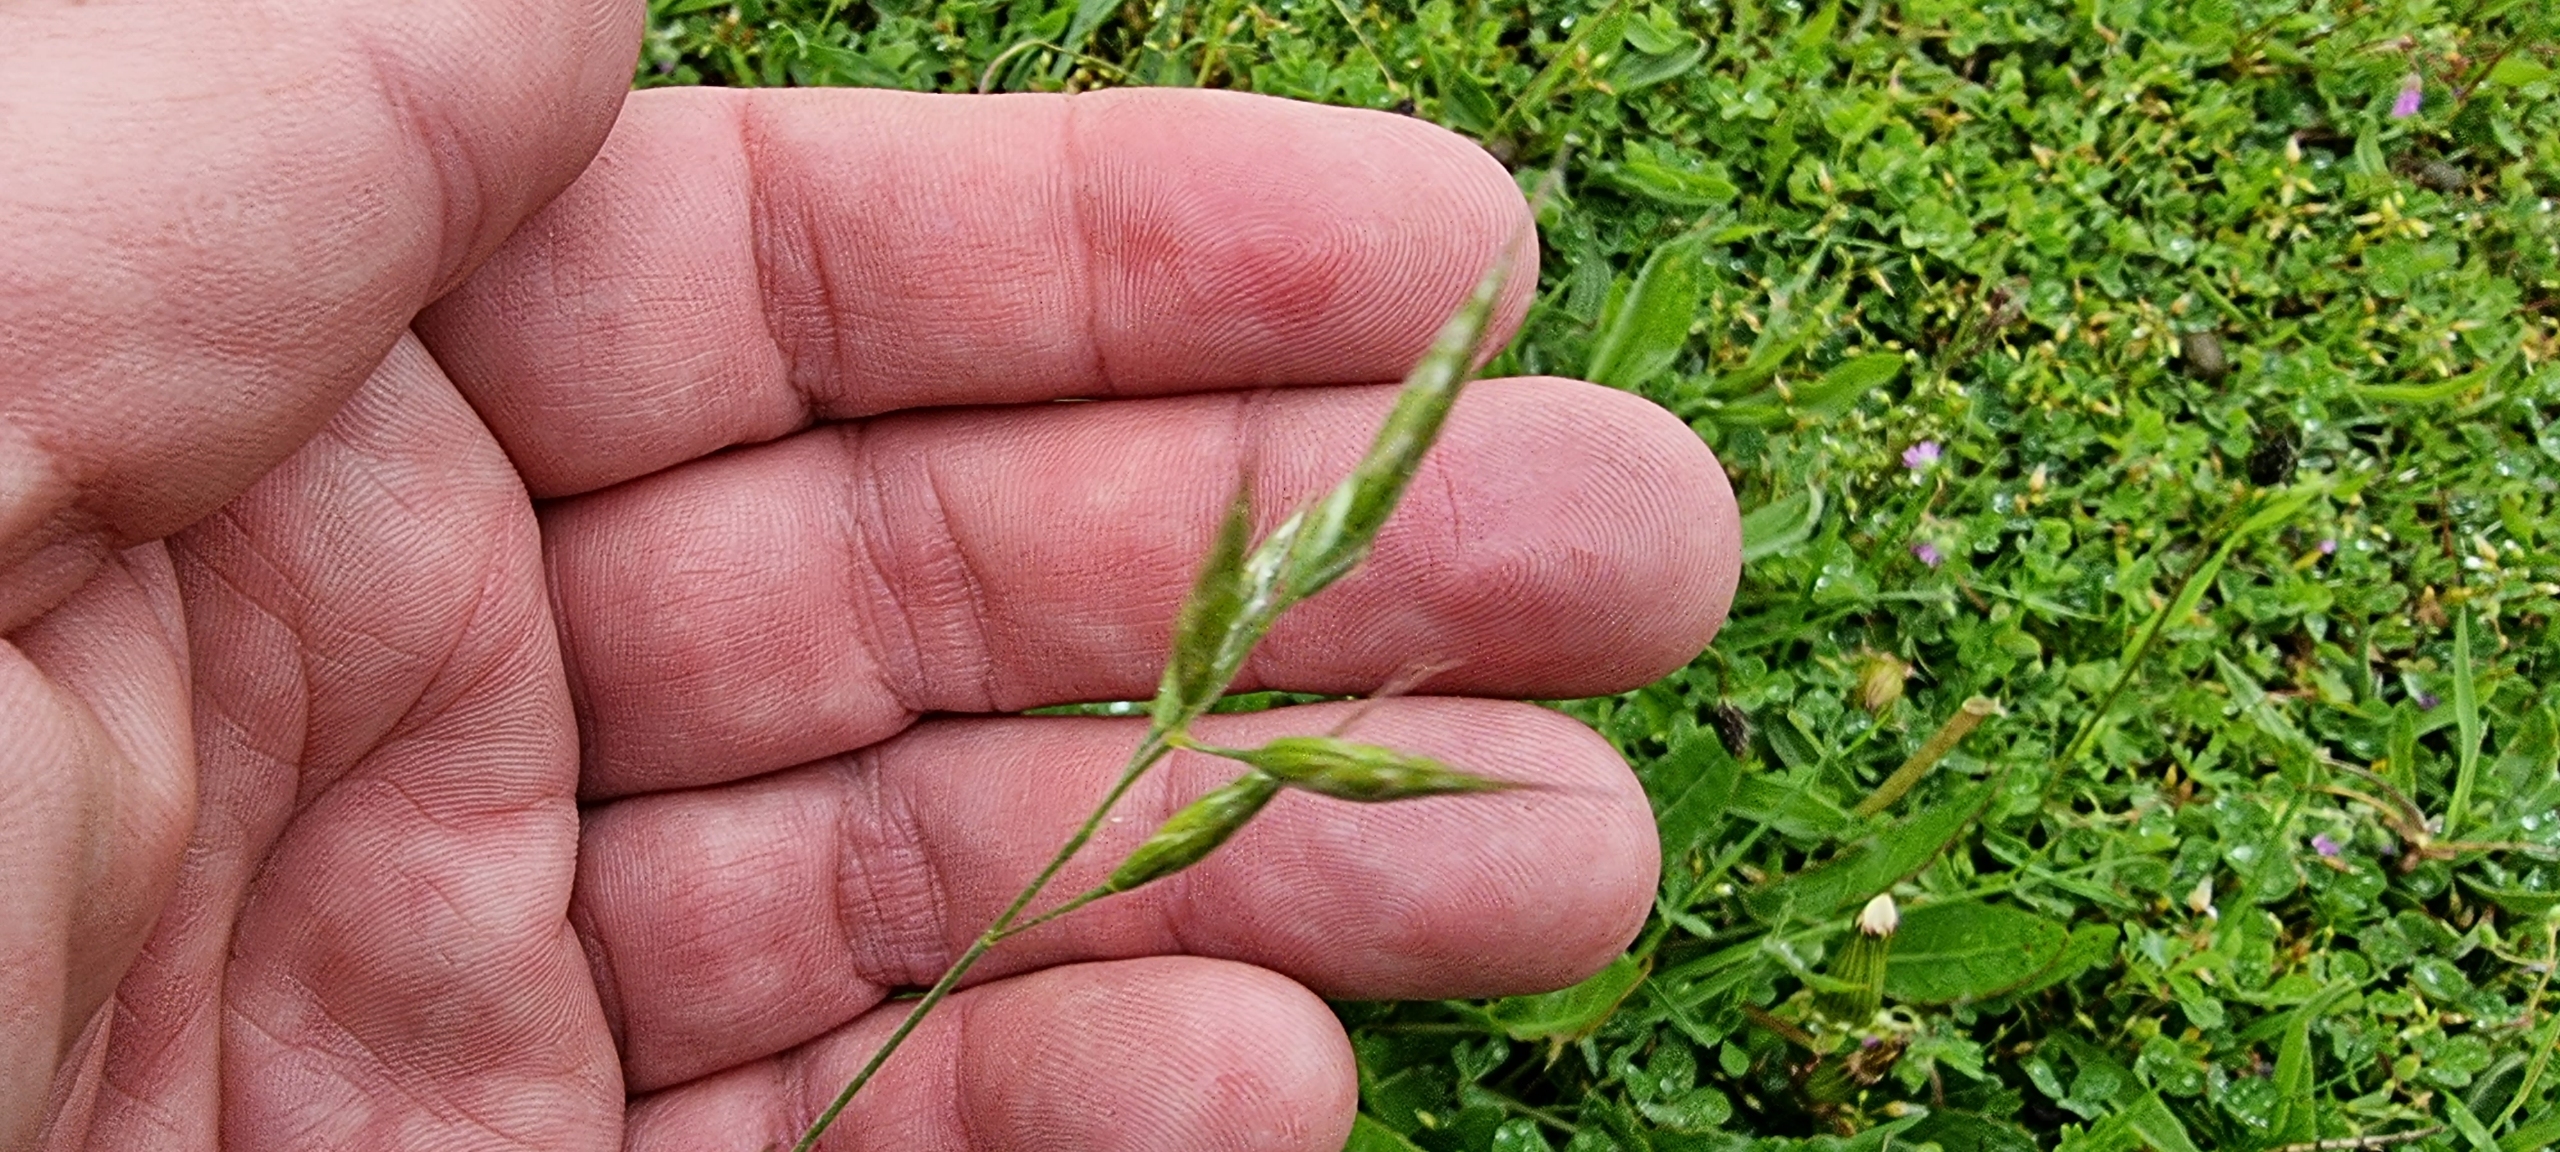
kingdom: Plantae
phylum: Tracheophyta
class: Liliopsida
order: Poales
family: Poaceae
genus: Bromus
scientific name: Bromus hordeaceus
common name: Blød hejre
